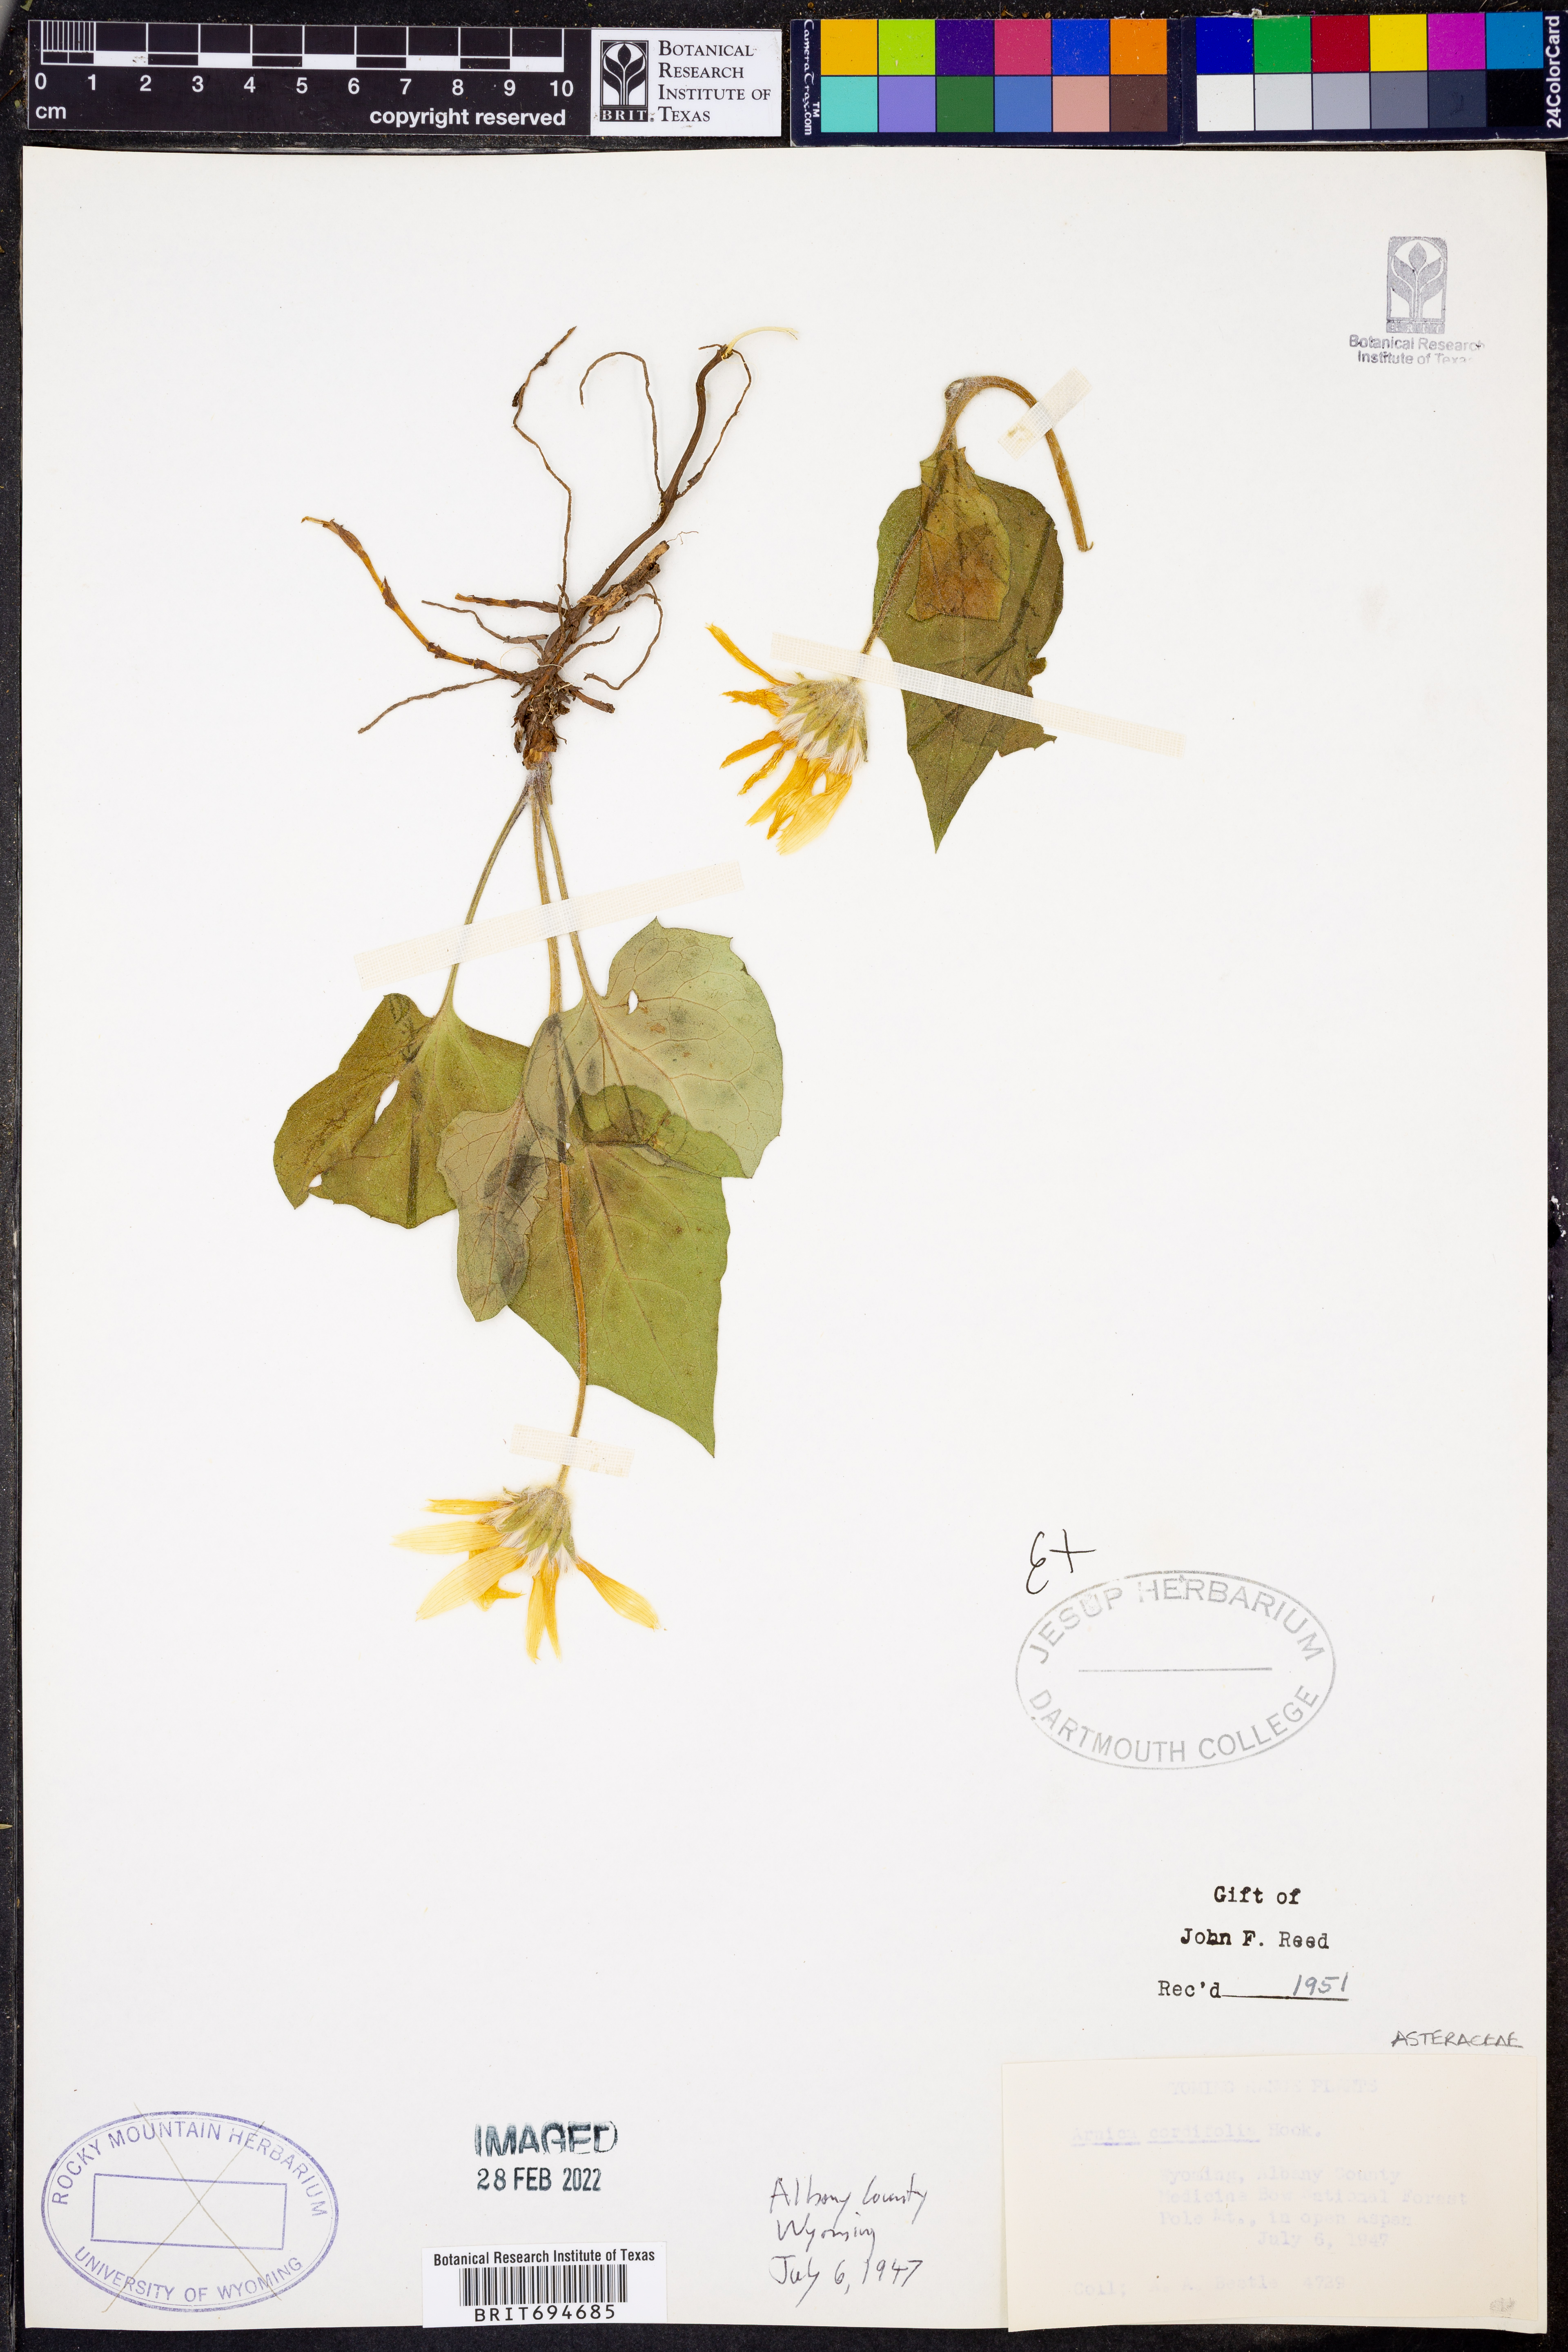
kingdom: Plantae
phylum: Tracheophyta
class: Magnoliopsida
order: Asterales
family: Asteraceae
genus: Arnica
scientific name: Arnica cordifolia
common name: Heart-leaf arnica
